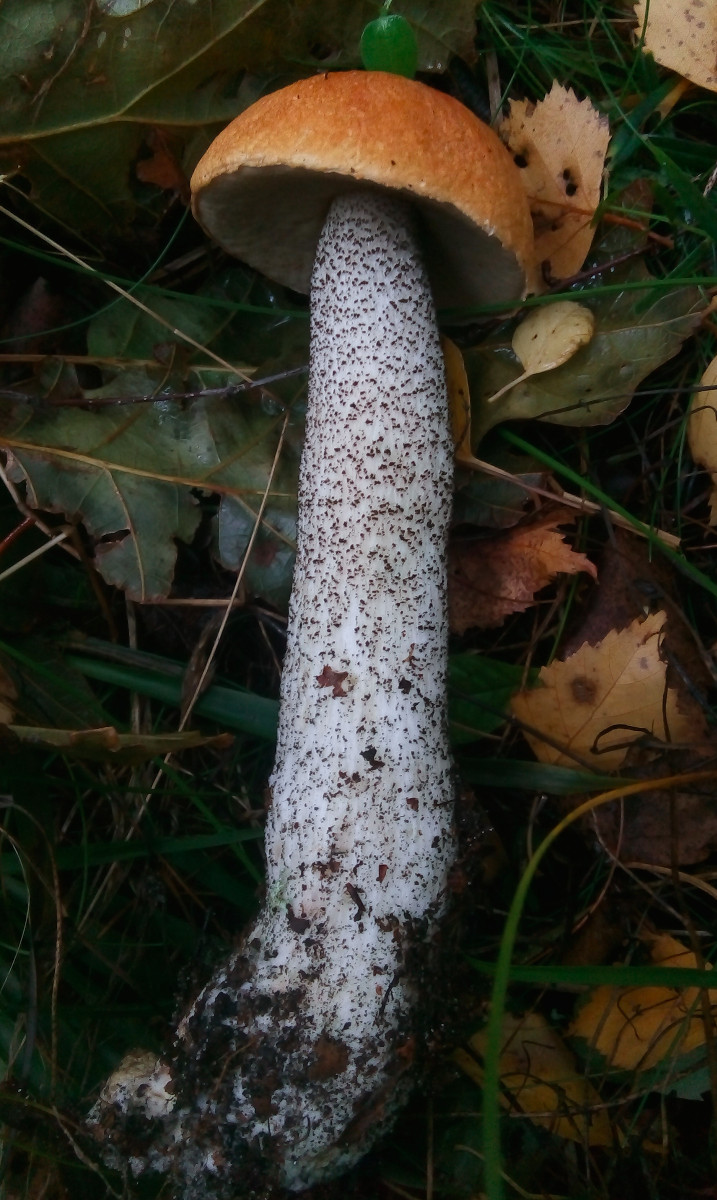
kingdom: Fungi
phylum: Basidiomycota
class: Agaricomycetes
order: Boletales
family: Boletaceae
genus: Leccinum
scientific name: Leccinum versipelle
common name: orange skælrørhat
